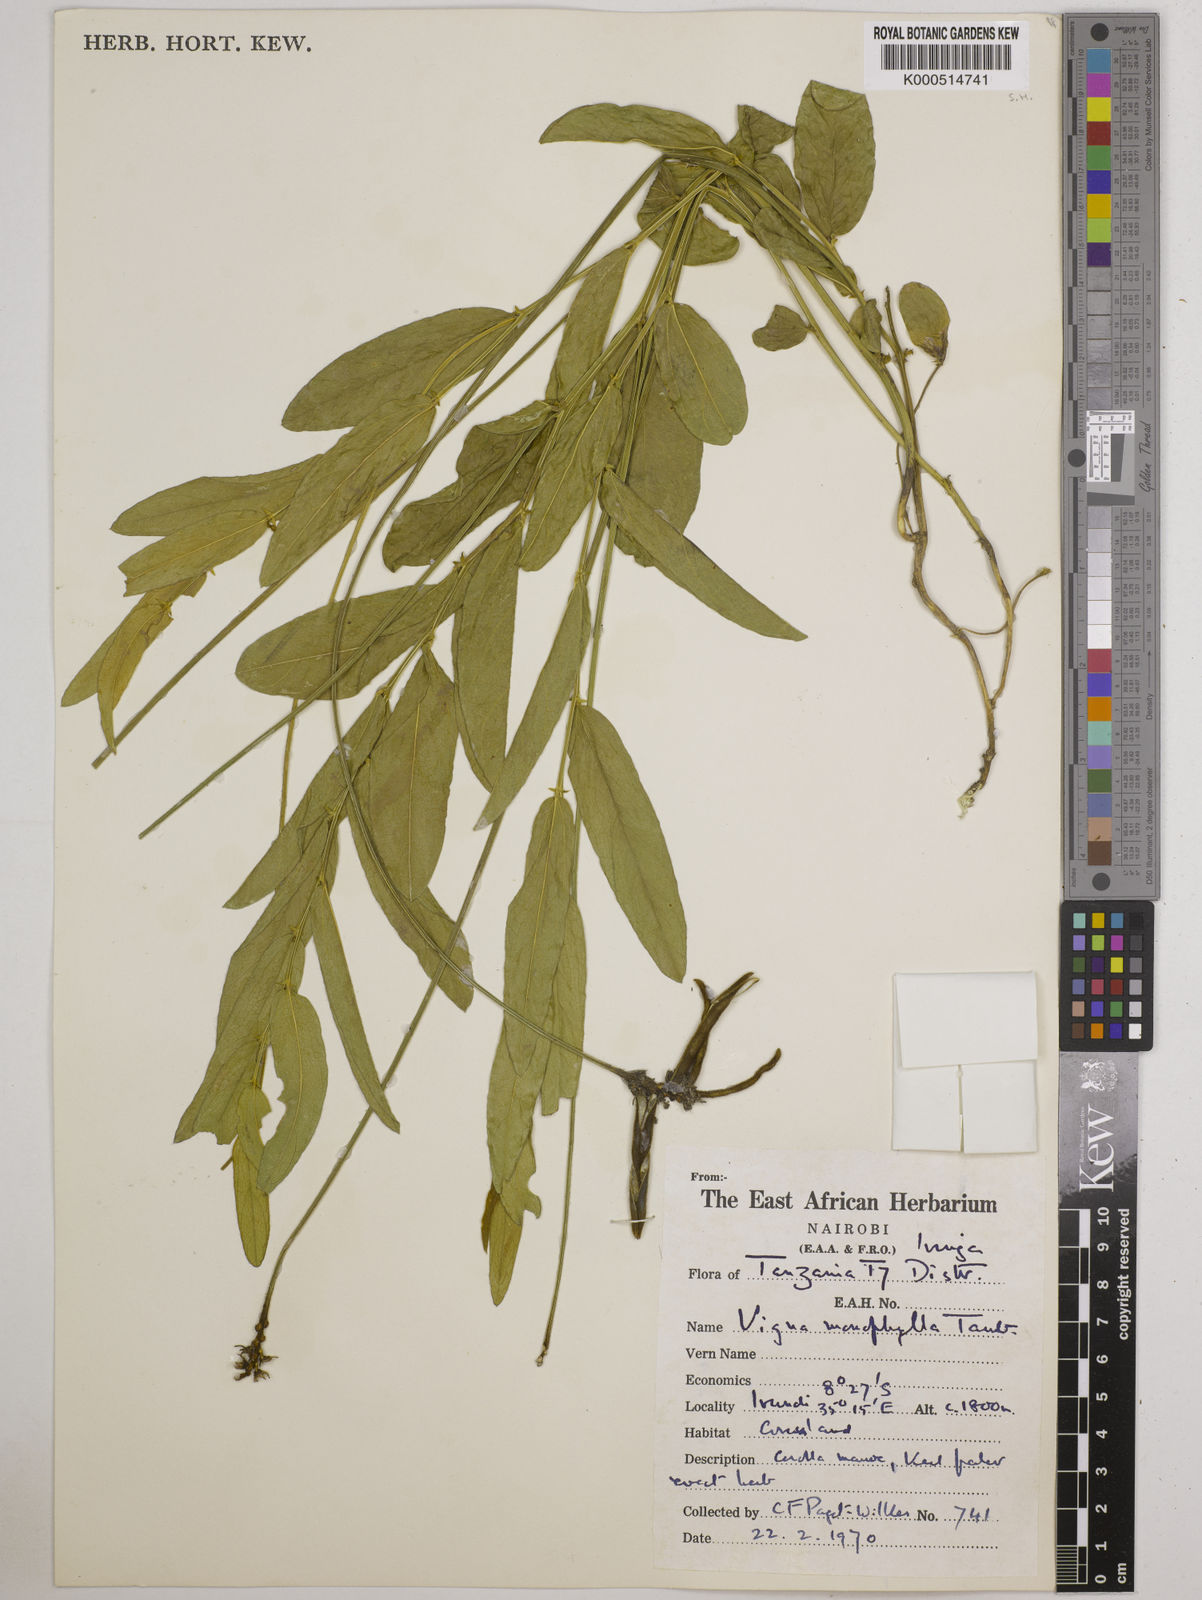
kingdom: Plantae
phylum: Tracheophyta
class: Magnoliopsida
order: Fabales
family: Fabaceae
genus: Vigna
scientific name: Vigna monophylla
